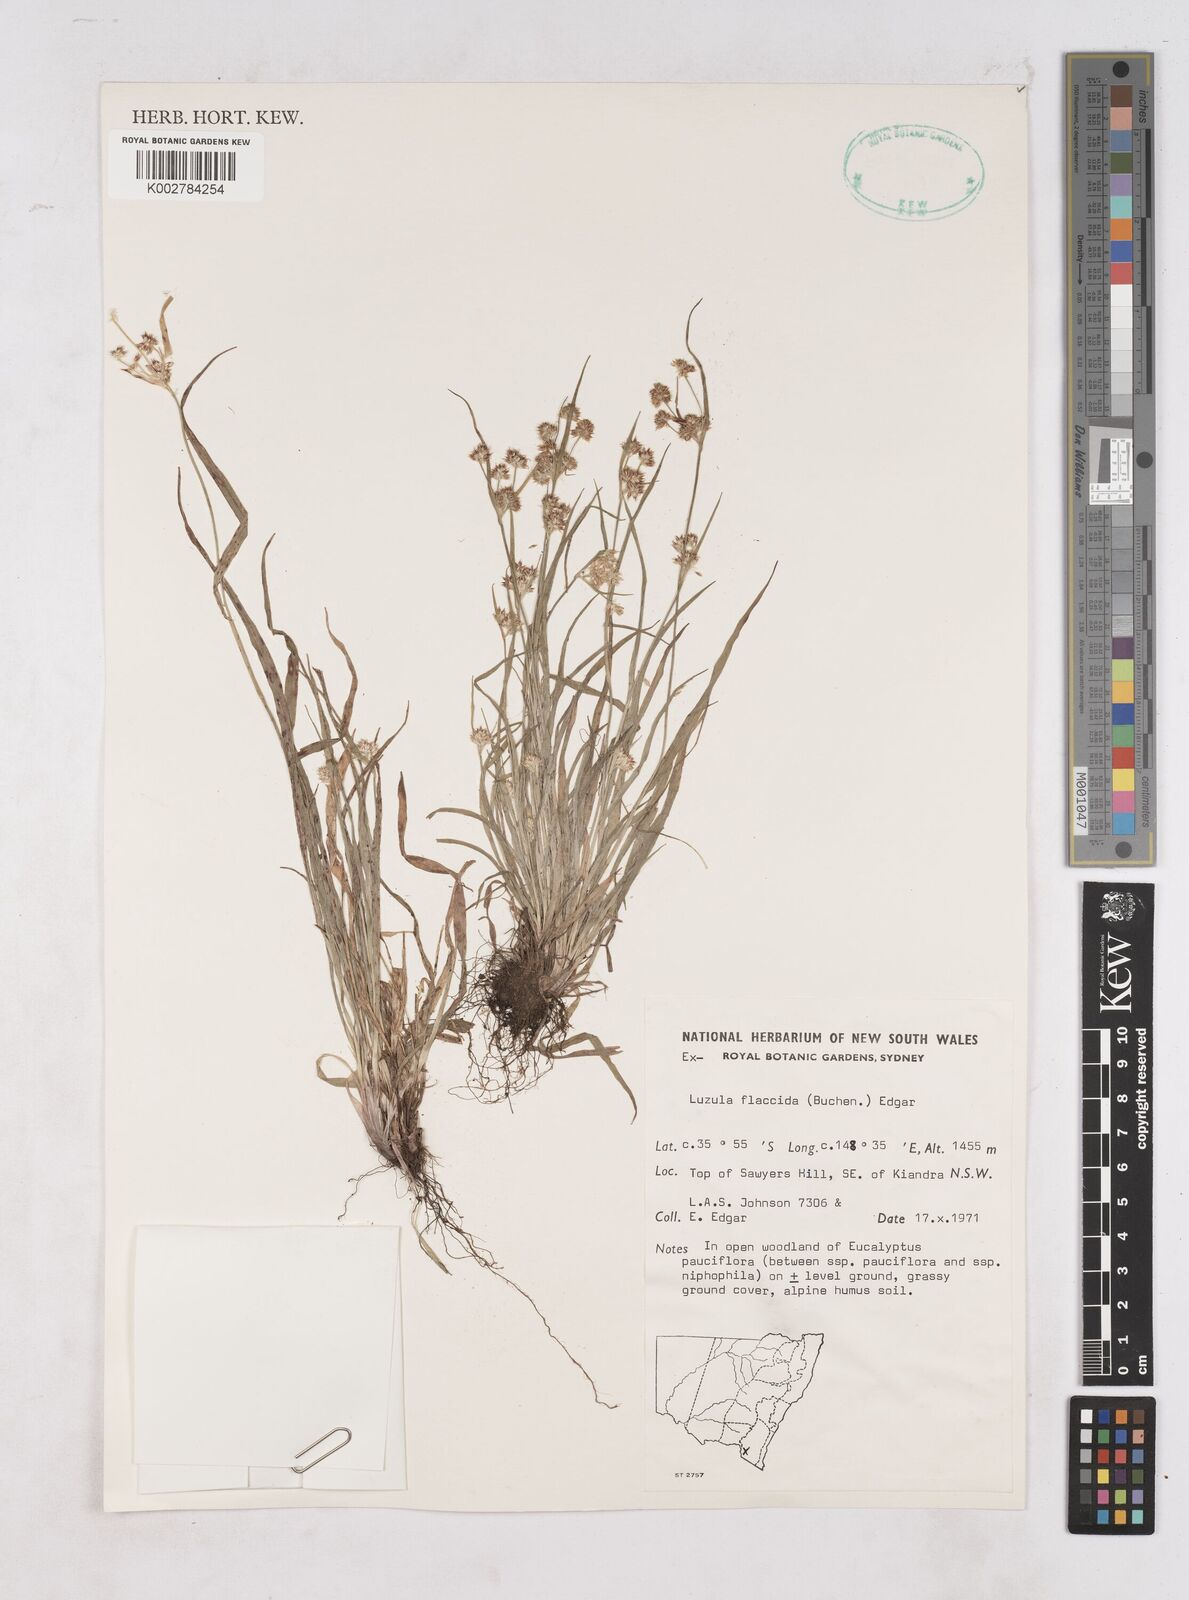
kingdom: Plantae
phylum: Tracheophyta
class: Liliopsida
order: Poales
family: Juncaceae
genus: Luzula
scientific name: Luzula flaccida
